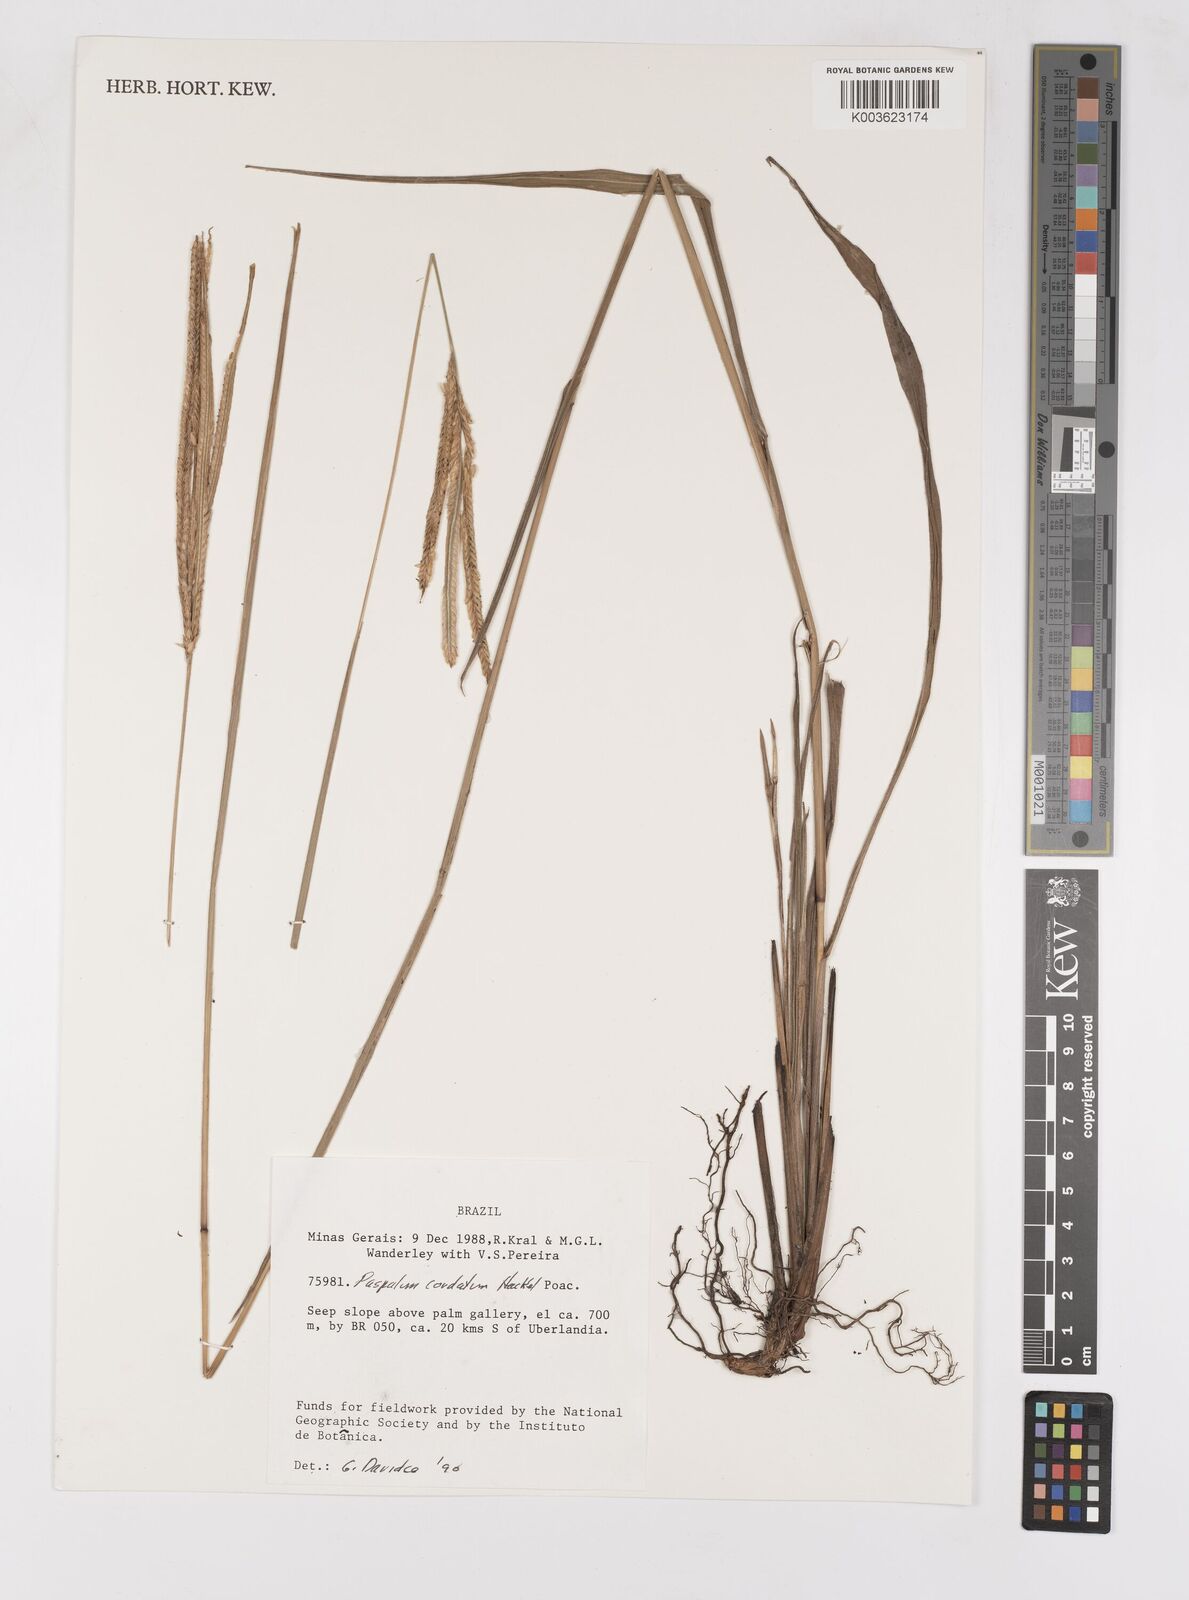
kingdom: Plantae
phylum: Tracheophyta
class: Liliopsida
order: Poales
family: Poaceae
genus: Paspalum
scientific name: Paspalum cordatum
